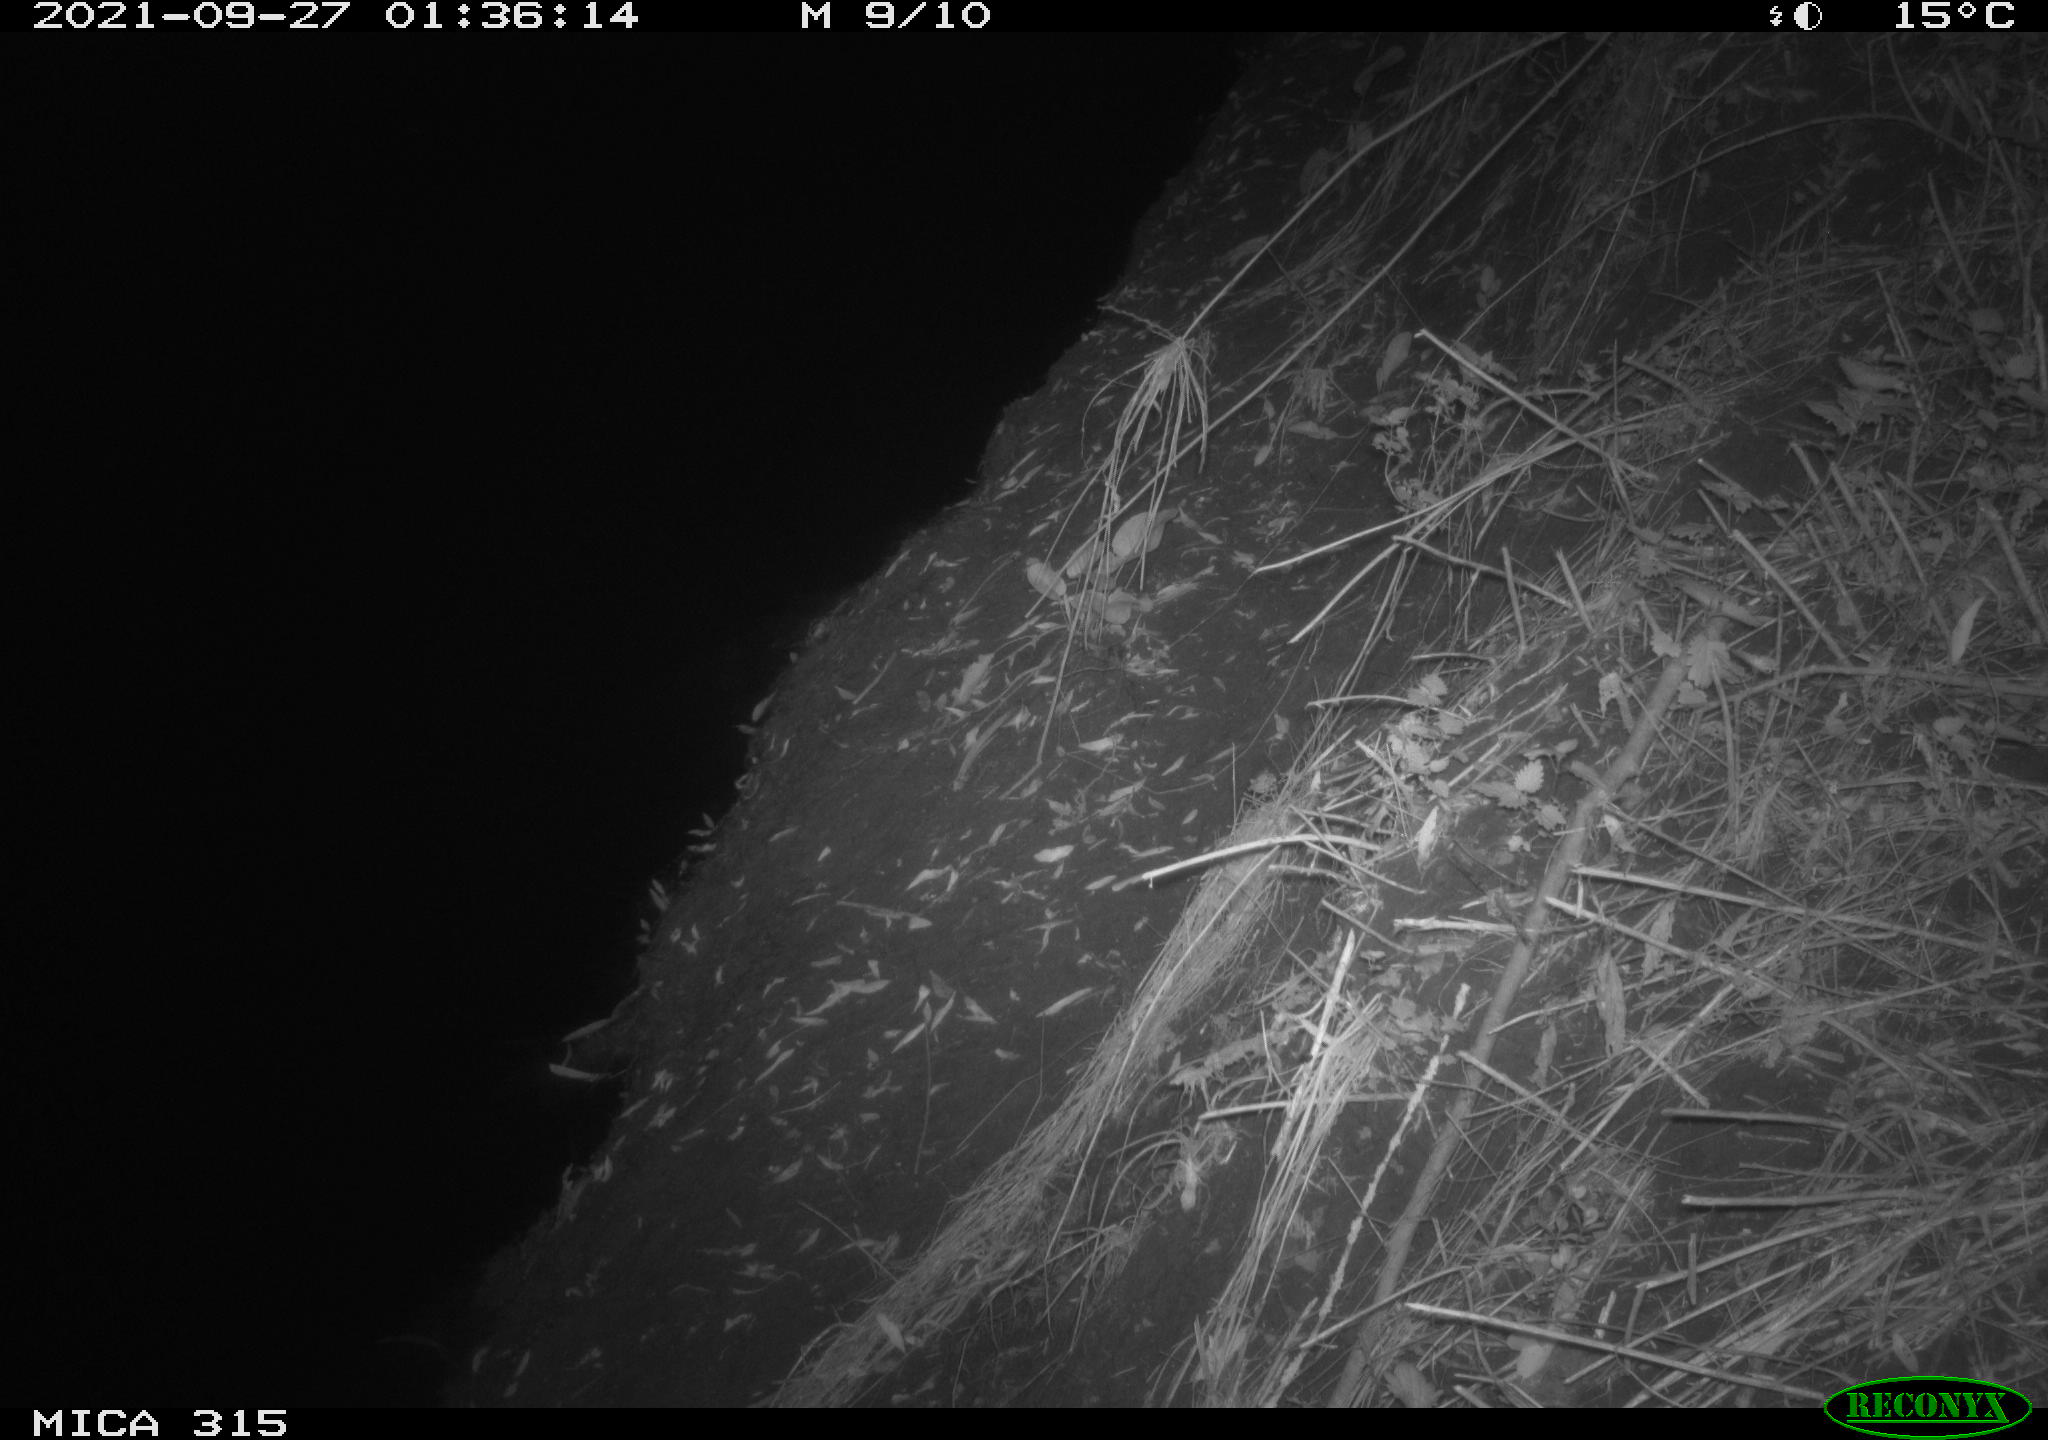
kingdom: Animalia
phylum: Chordata
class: Mammalia
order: Rodentia
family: Muridae
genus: Rattus
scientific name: Rattus norvegicus
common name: Brown rat
